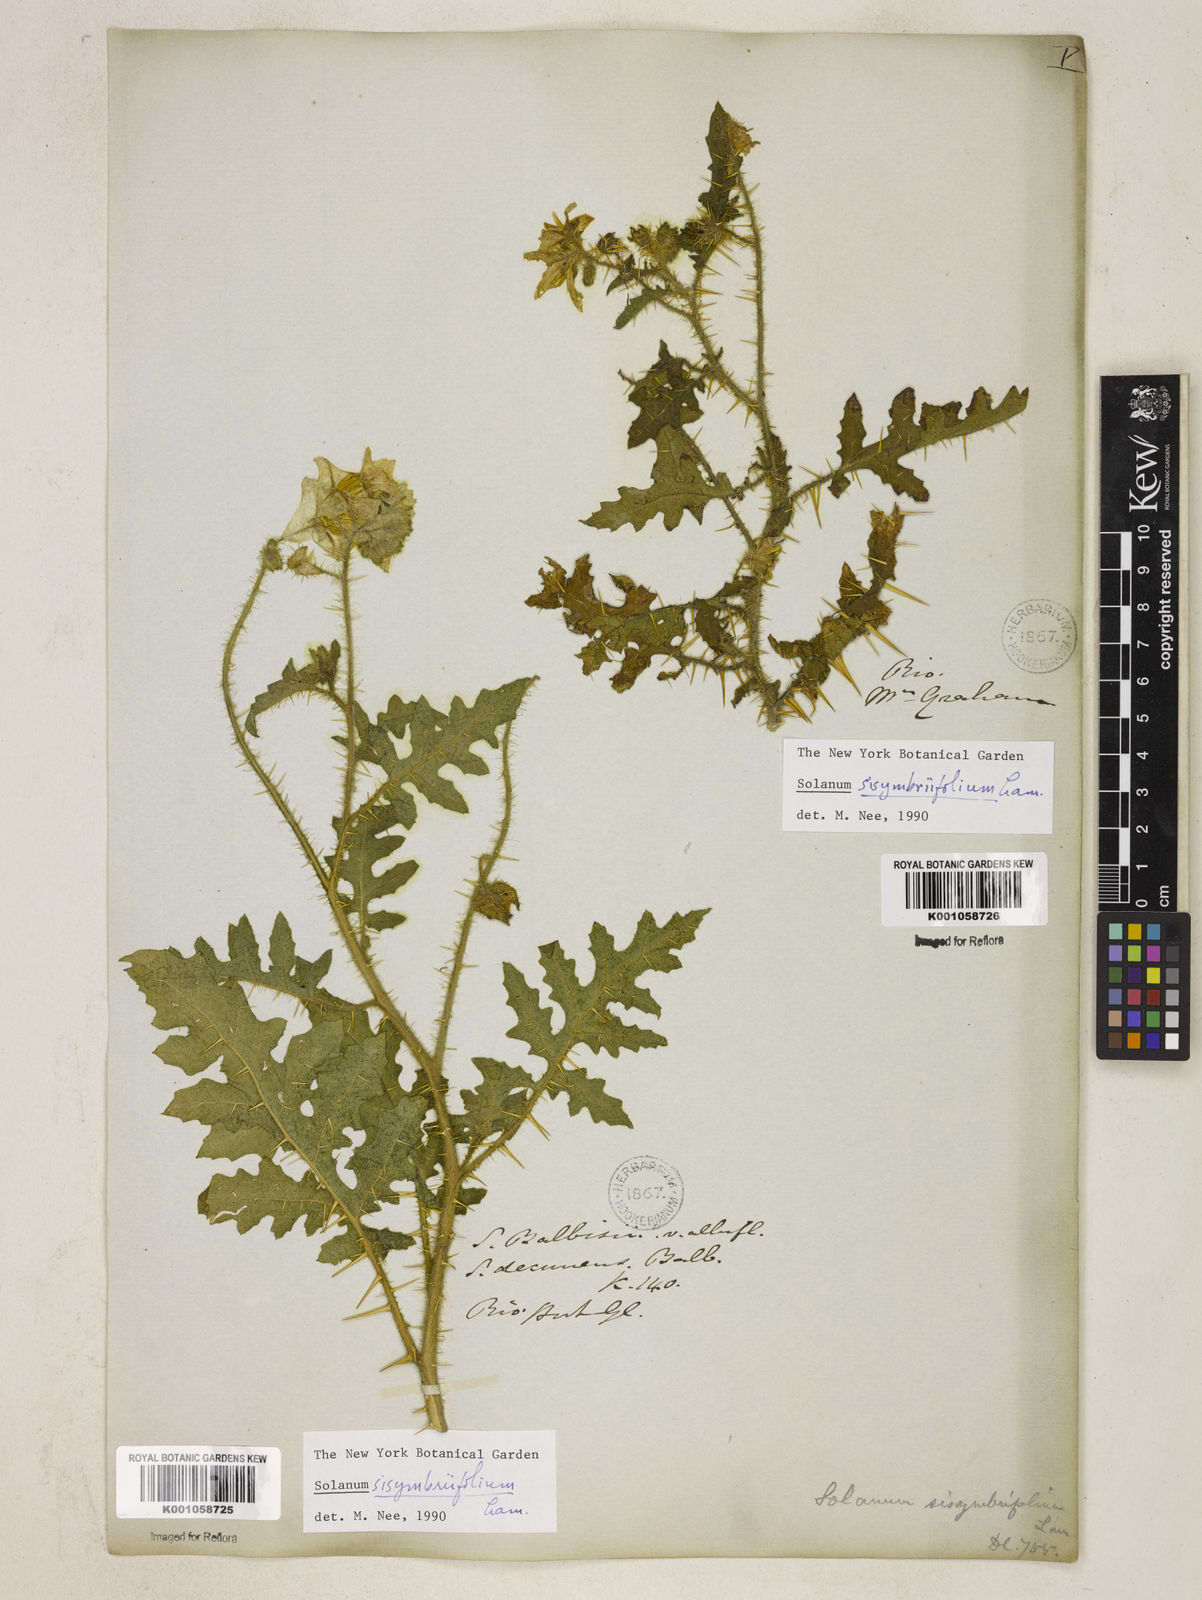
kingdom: Plantae
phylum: Tracheophyta
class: Magnoliopsida
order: Solanales
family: Solanaceae
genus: Solanum
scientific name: Solanum sisymbriifolium
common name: Red buffalo-bur
